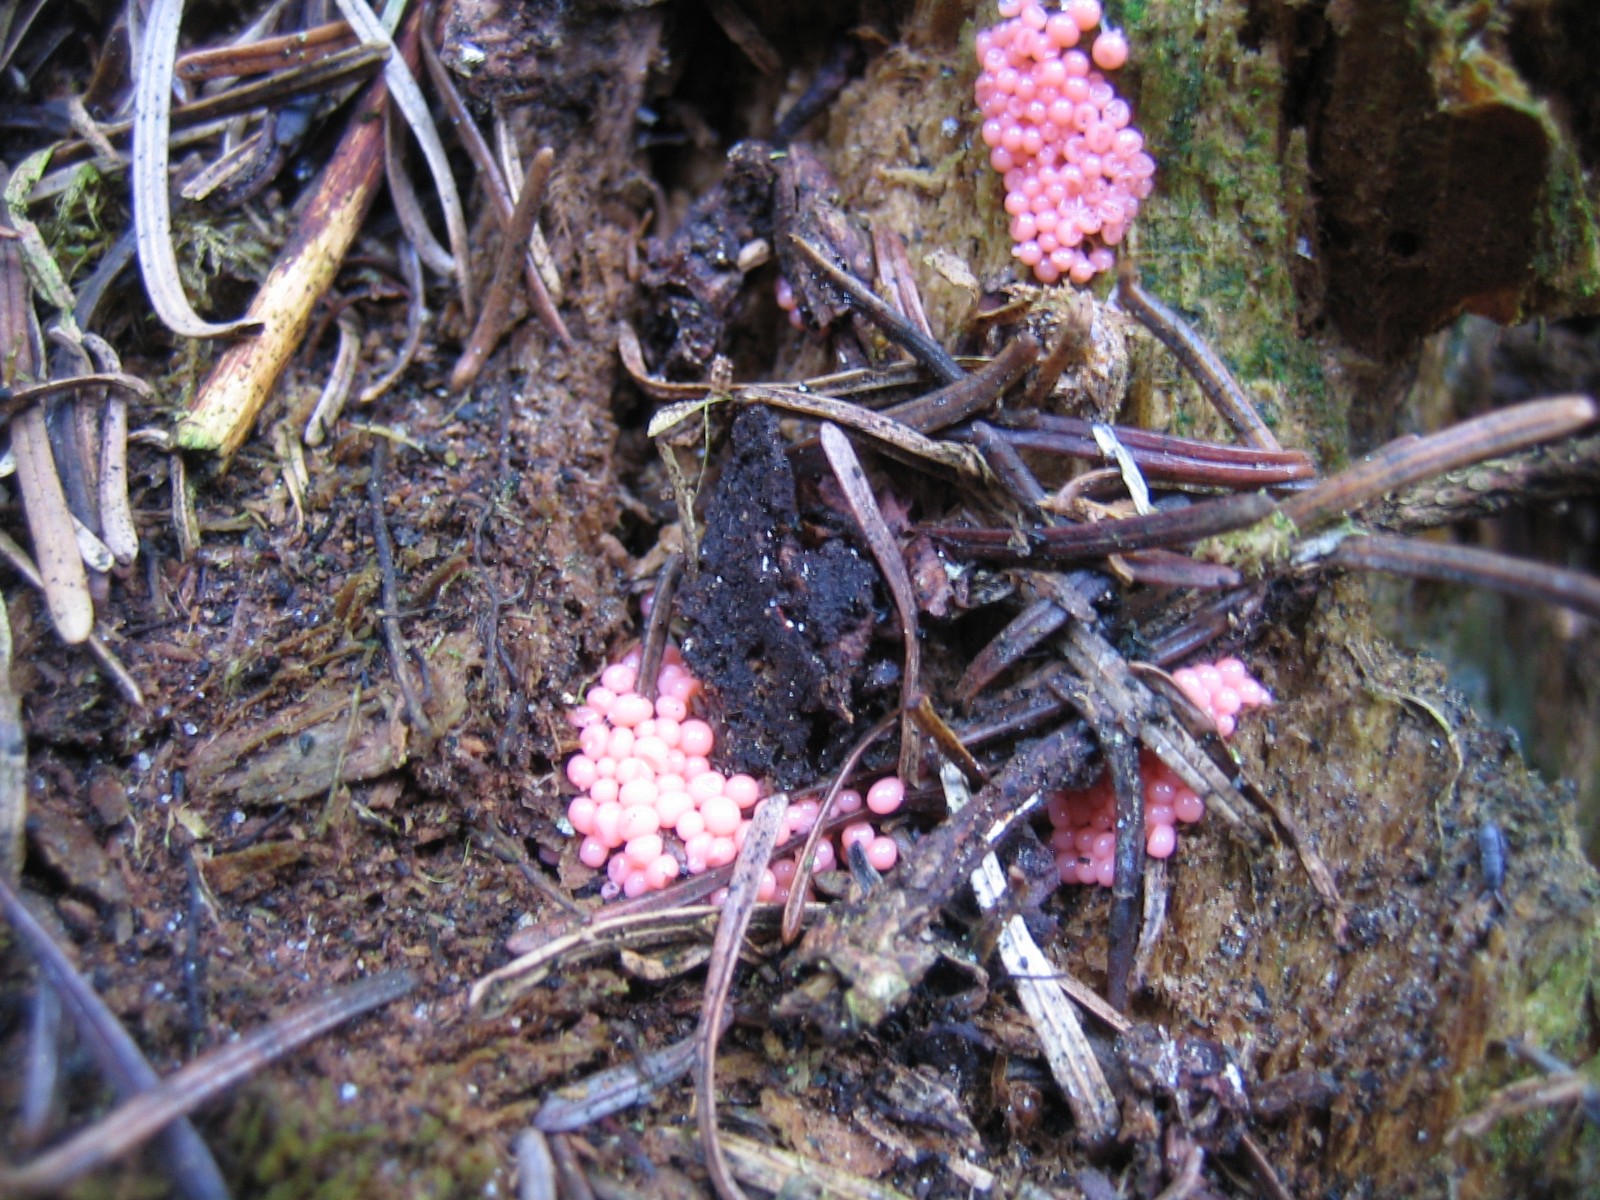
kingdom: Protozoa
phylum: Mycetozoa
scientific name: Mycetozoa
